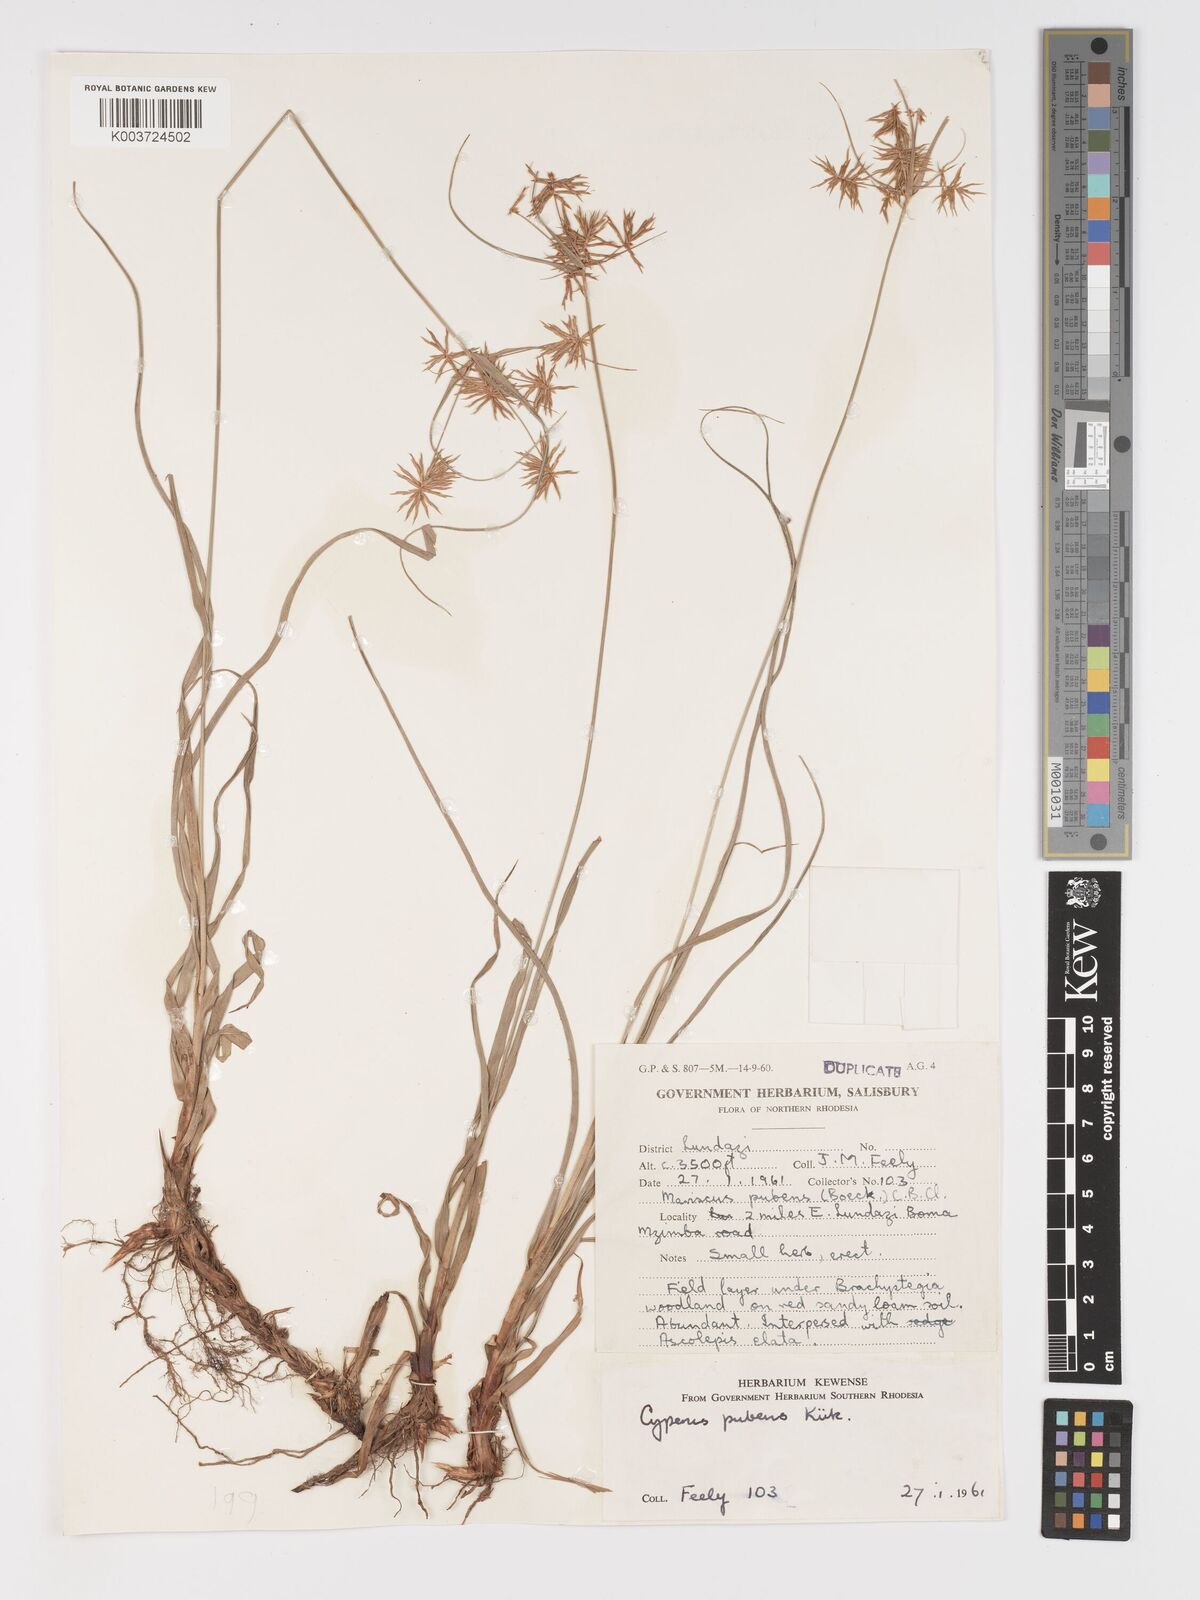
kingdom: Plantae
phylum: Tracheophyta
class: Liliopsida
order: Poales
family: Cyperaceae
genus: Cyperus
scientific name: Cyperus pubens
